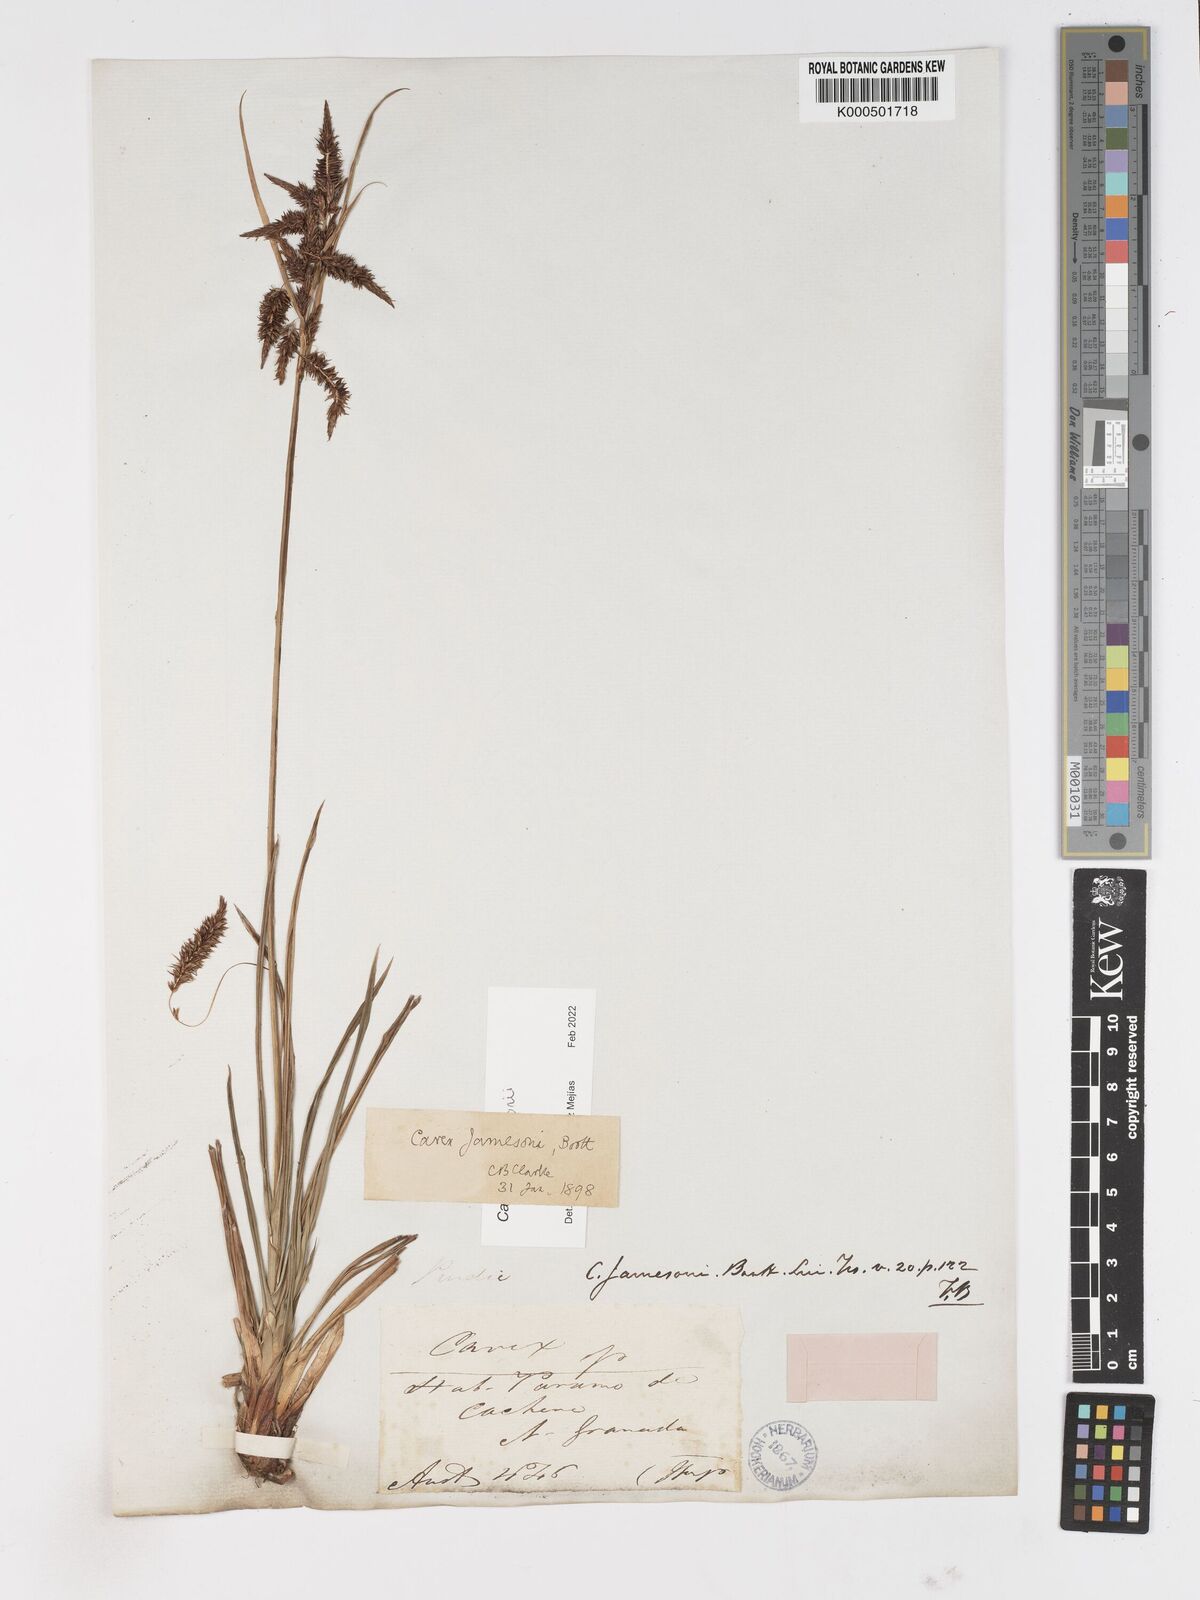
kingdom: Plantae
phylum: Tracheophyta
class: Liliopsida
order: Poales
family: Cyperaceae
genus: Carex
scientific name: Carex jamesonii
